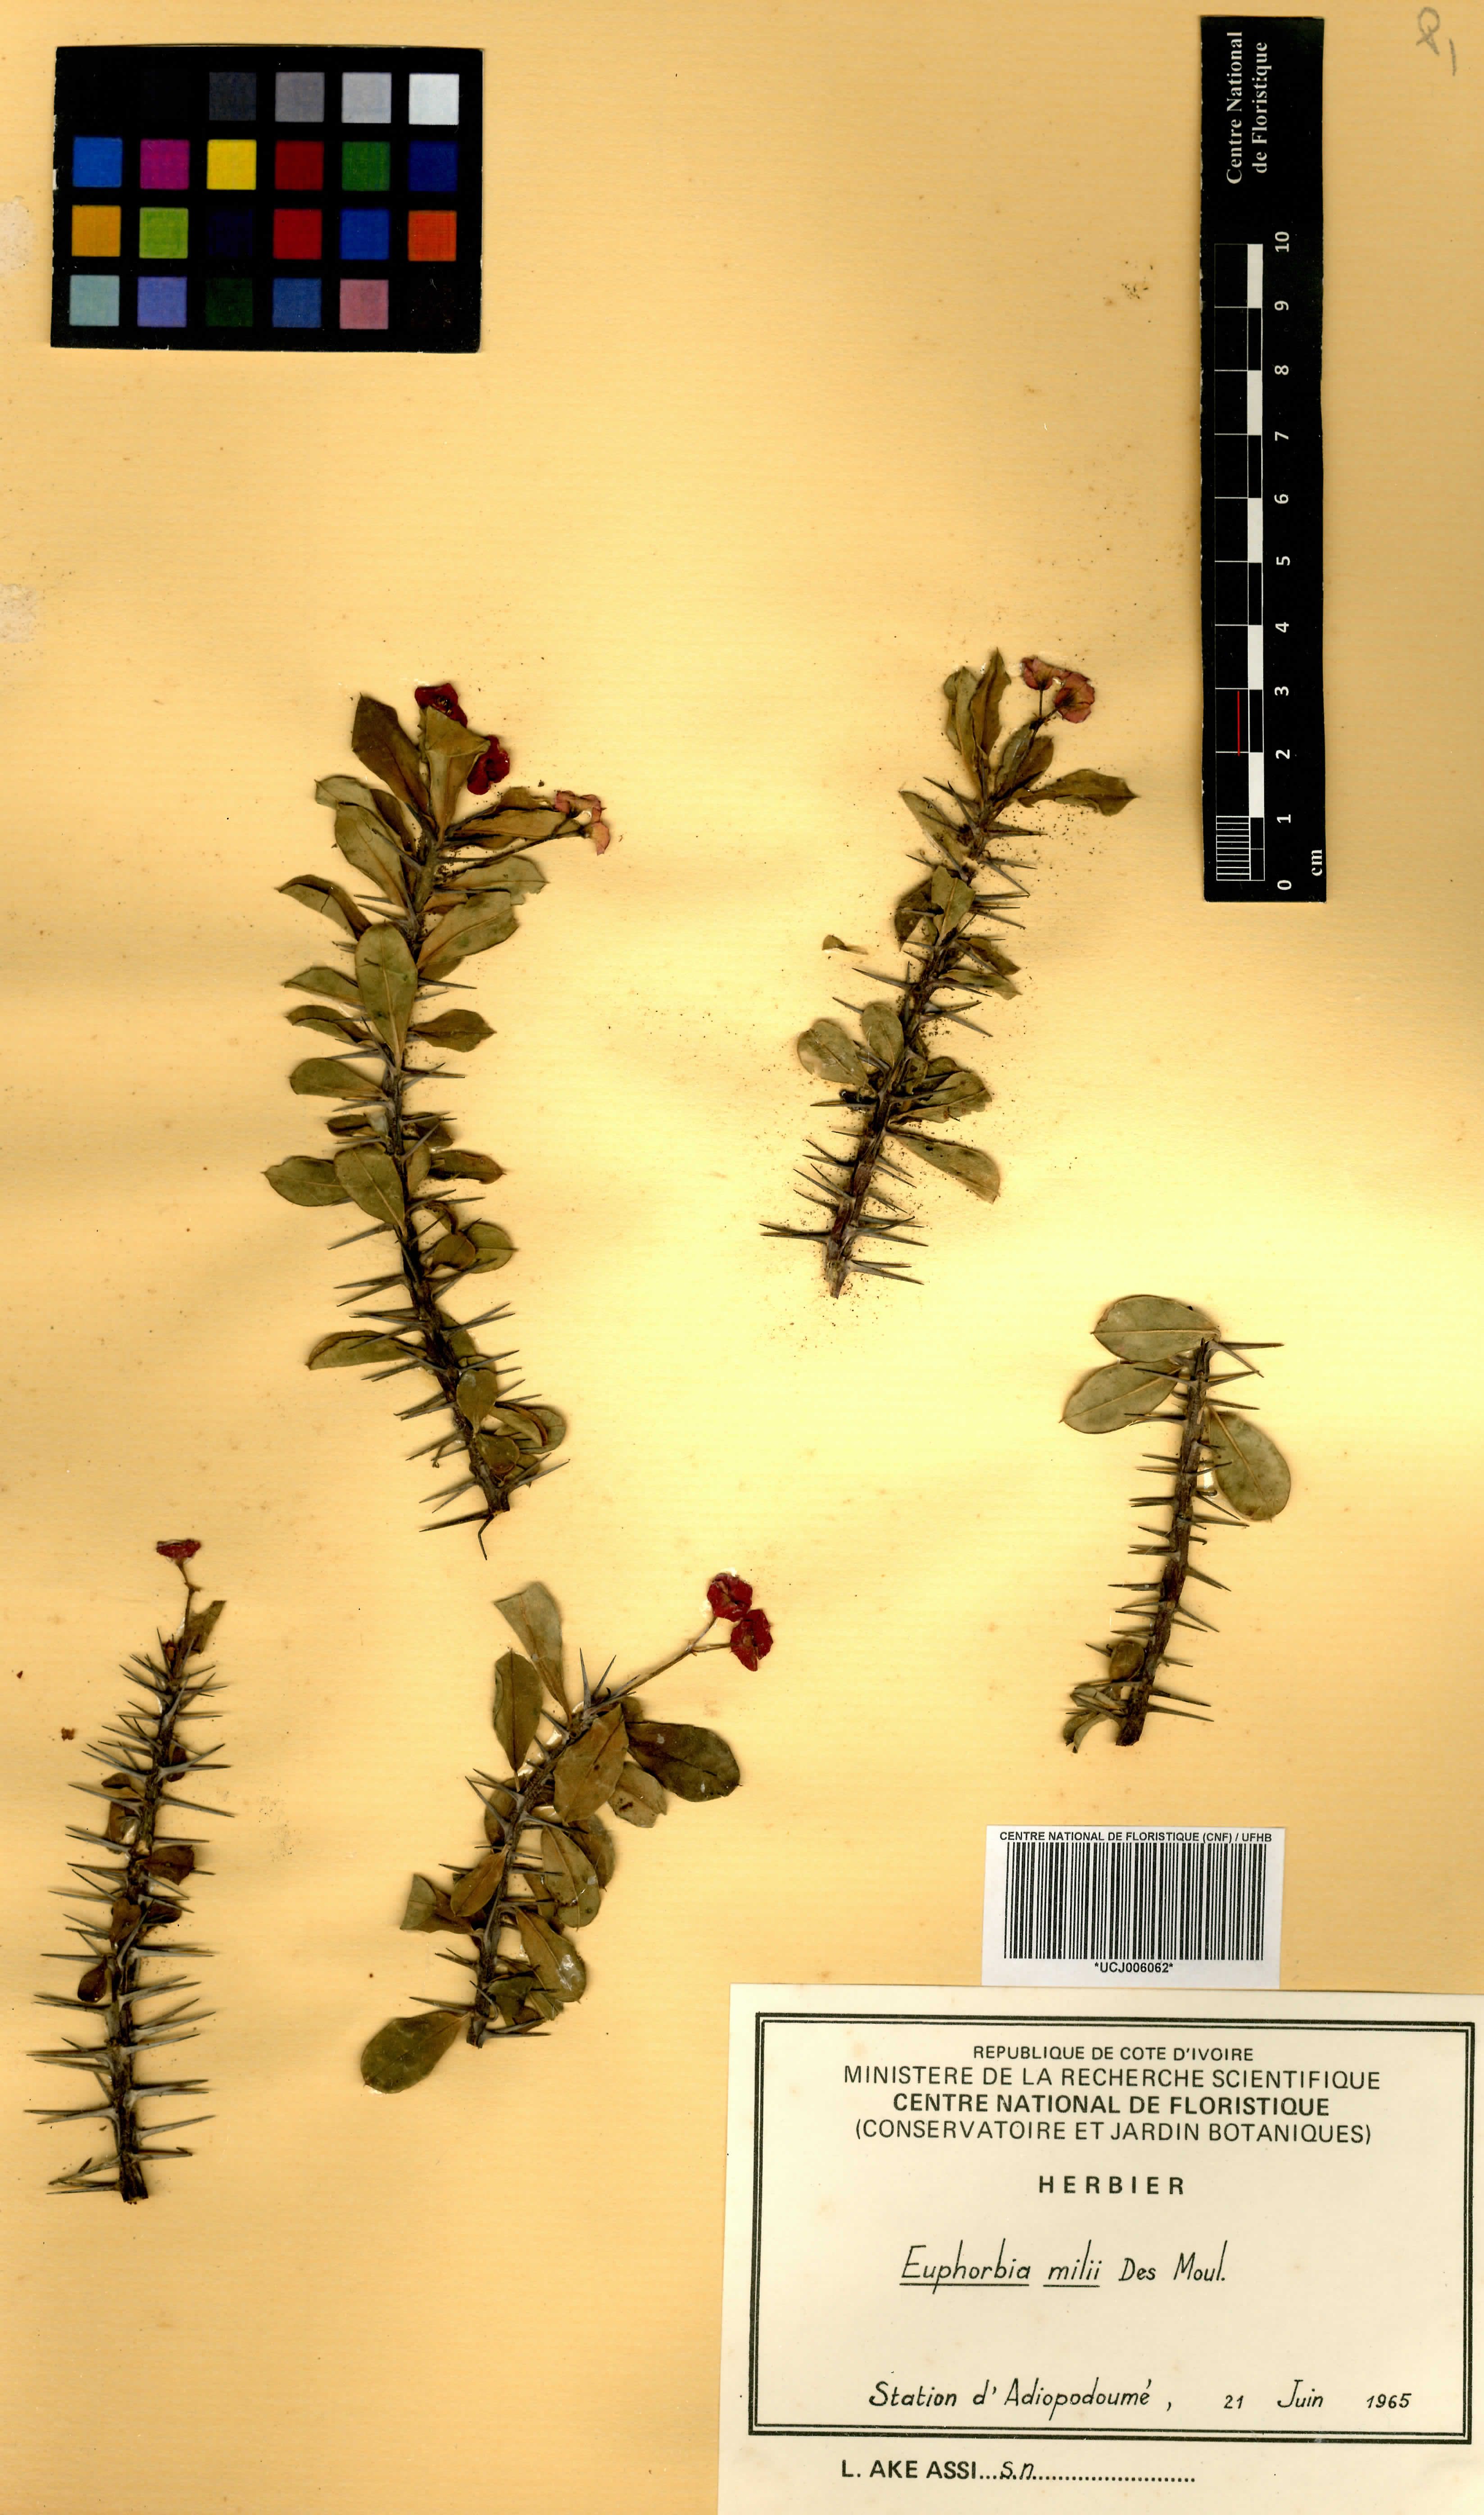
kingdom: Plantae
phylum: Tracheophyta
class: Magnoliopsida
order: Malpighiales
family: Euphorbiaceae
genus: Euphorbia
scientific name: Euphorbia milii
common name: Christplant
